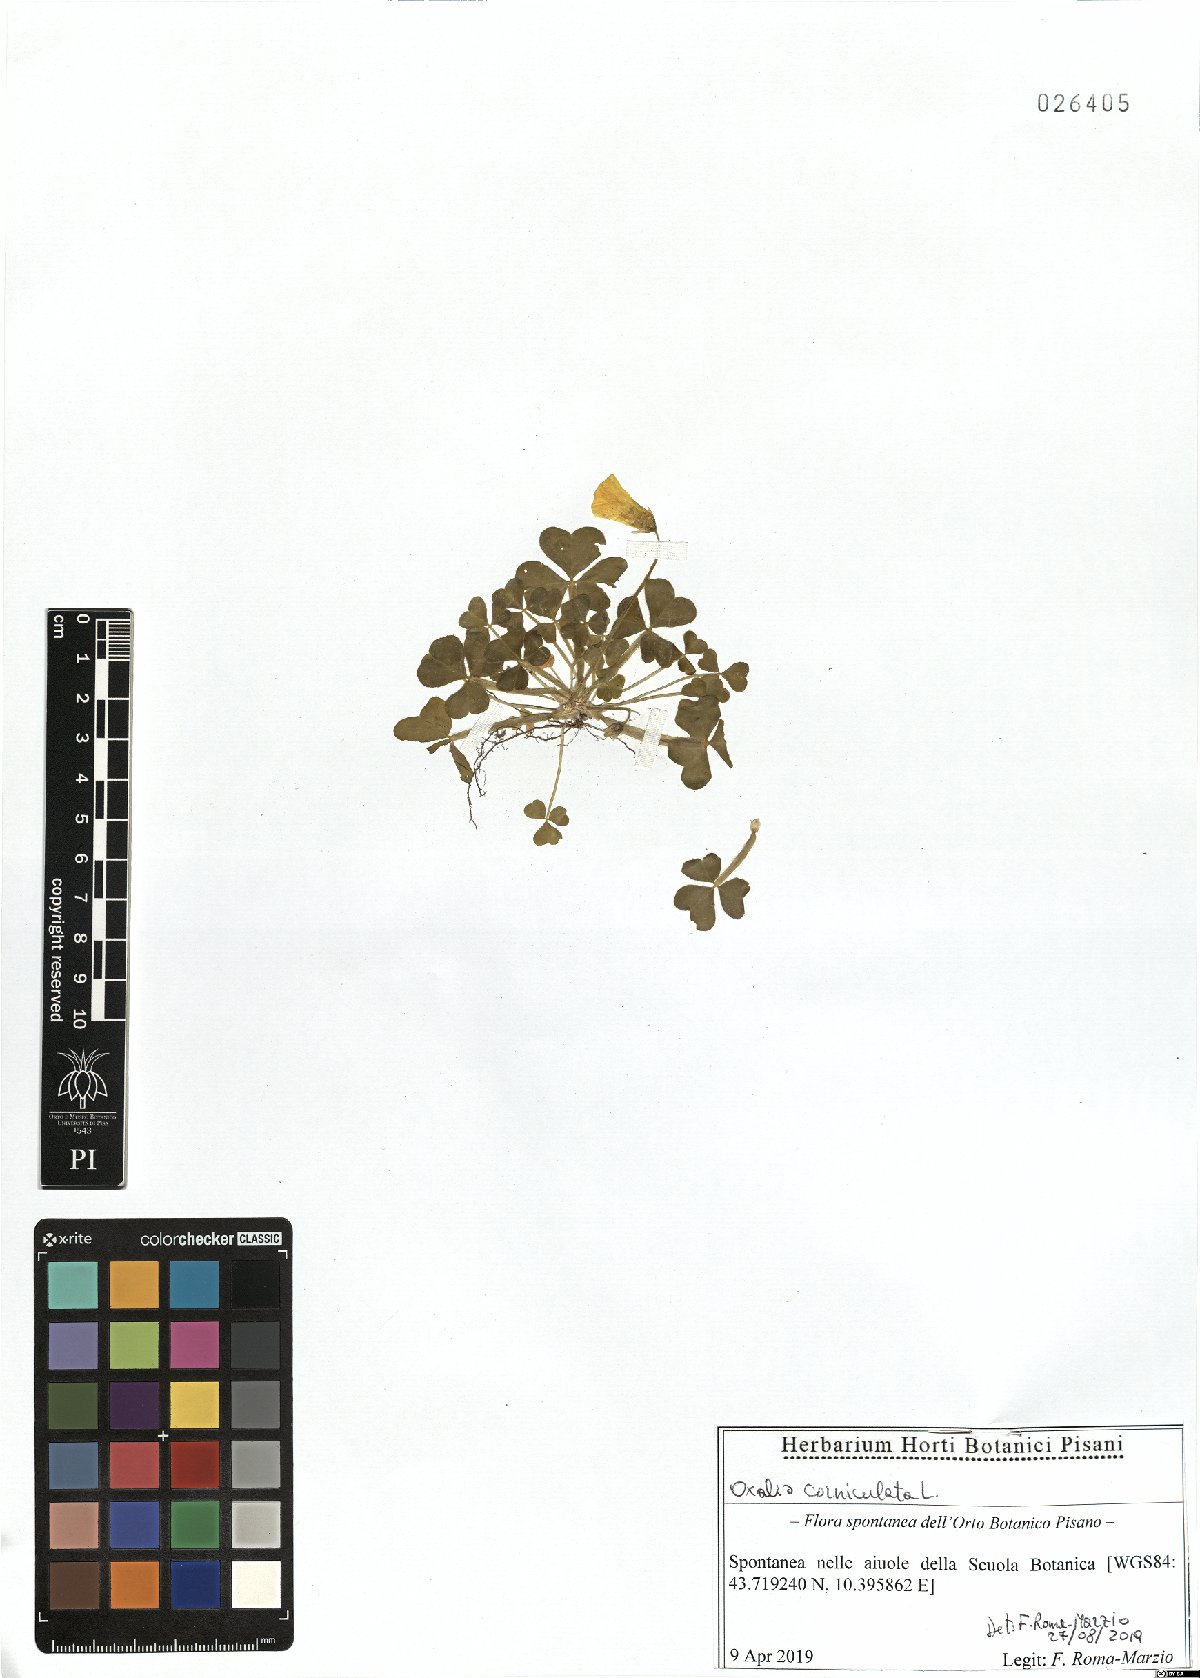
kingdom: Plantae
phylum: Tracheophyta
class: Magnoliopsida
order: Oxalidales
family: Oxalidaceae
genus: Oxalis
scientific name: Oxalis corniculata
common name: Procumbent yellow-sorrel
